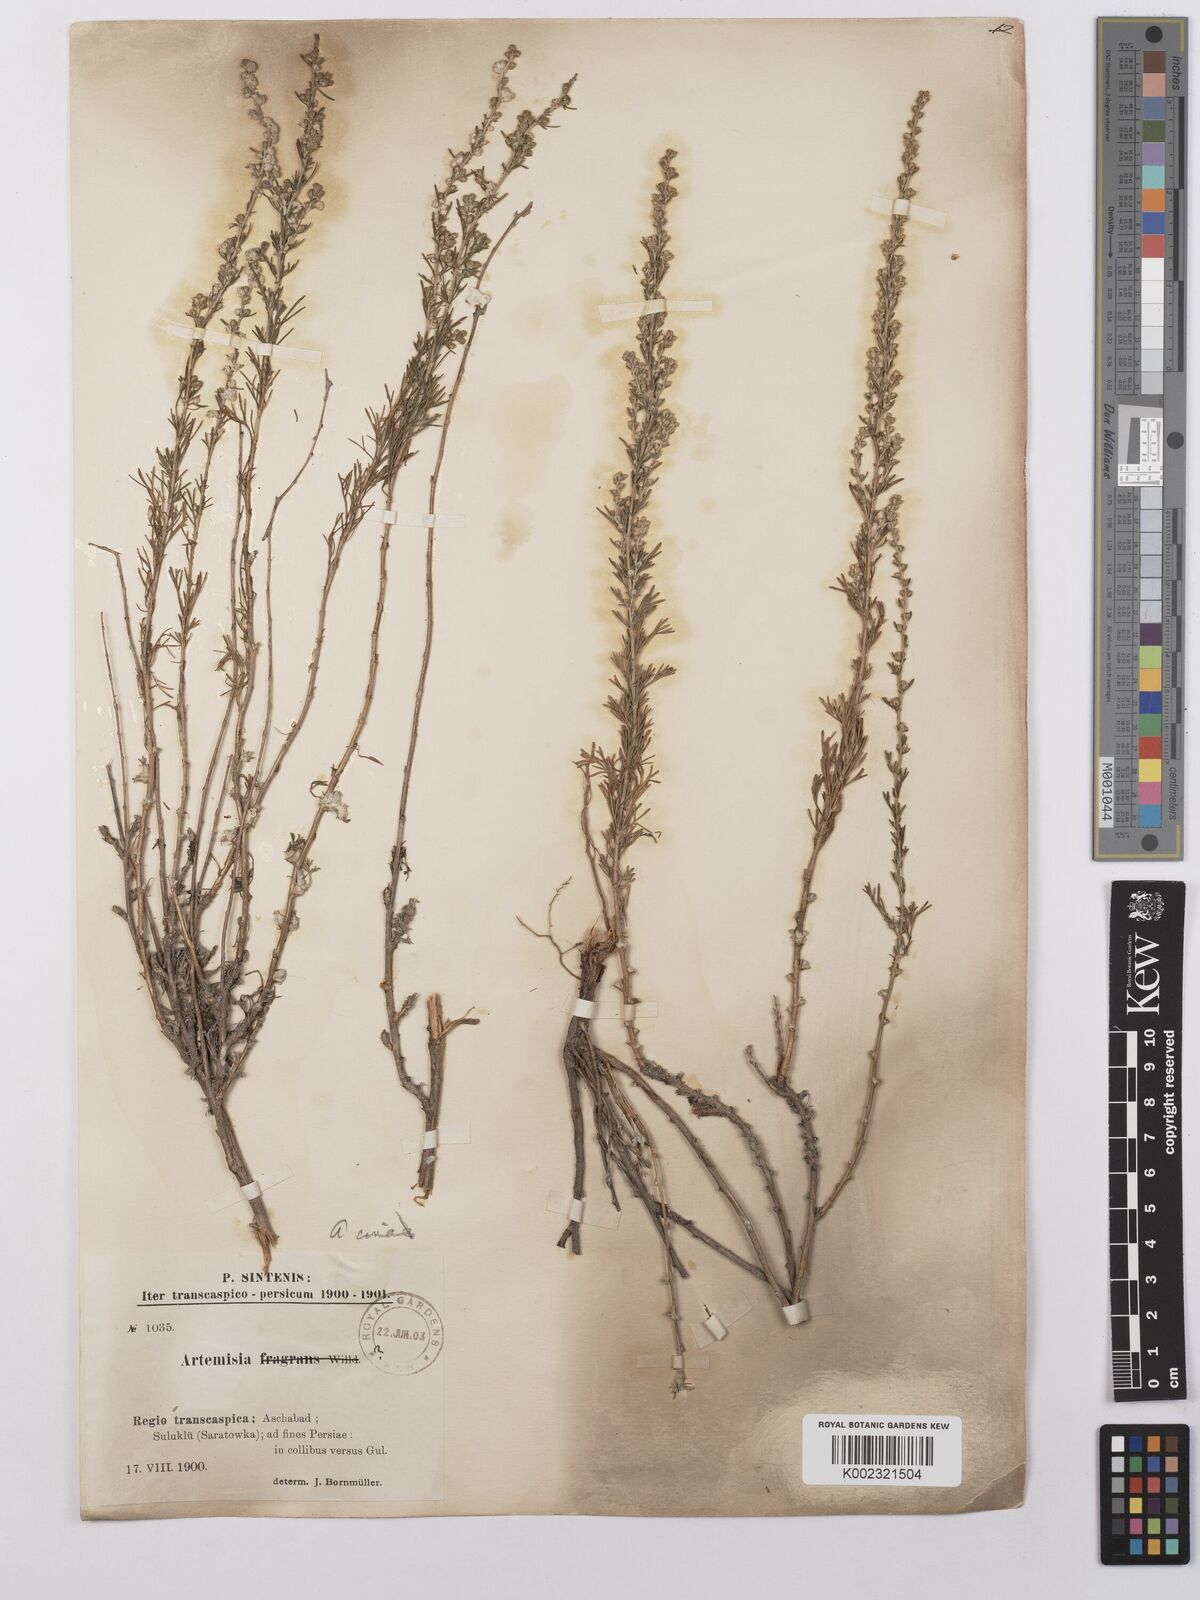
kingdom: Plantae
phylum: Tracheophyta
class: Magnoliopsida
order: Asterales
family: Asteraceae
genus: Artemisia
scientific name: Artemisia cina
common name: Levant wormseed
